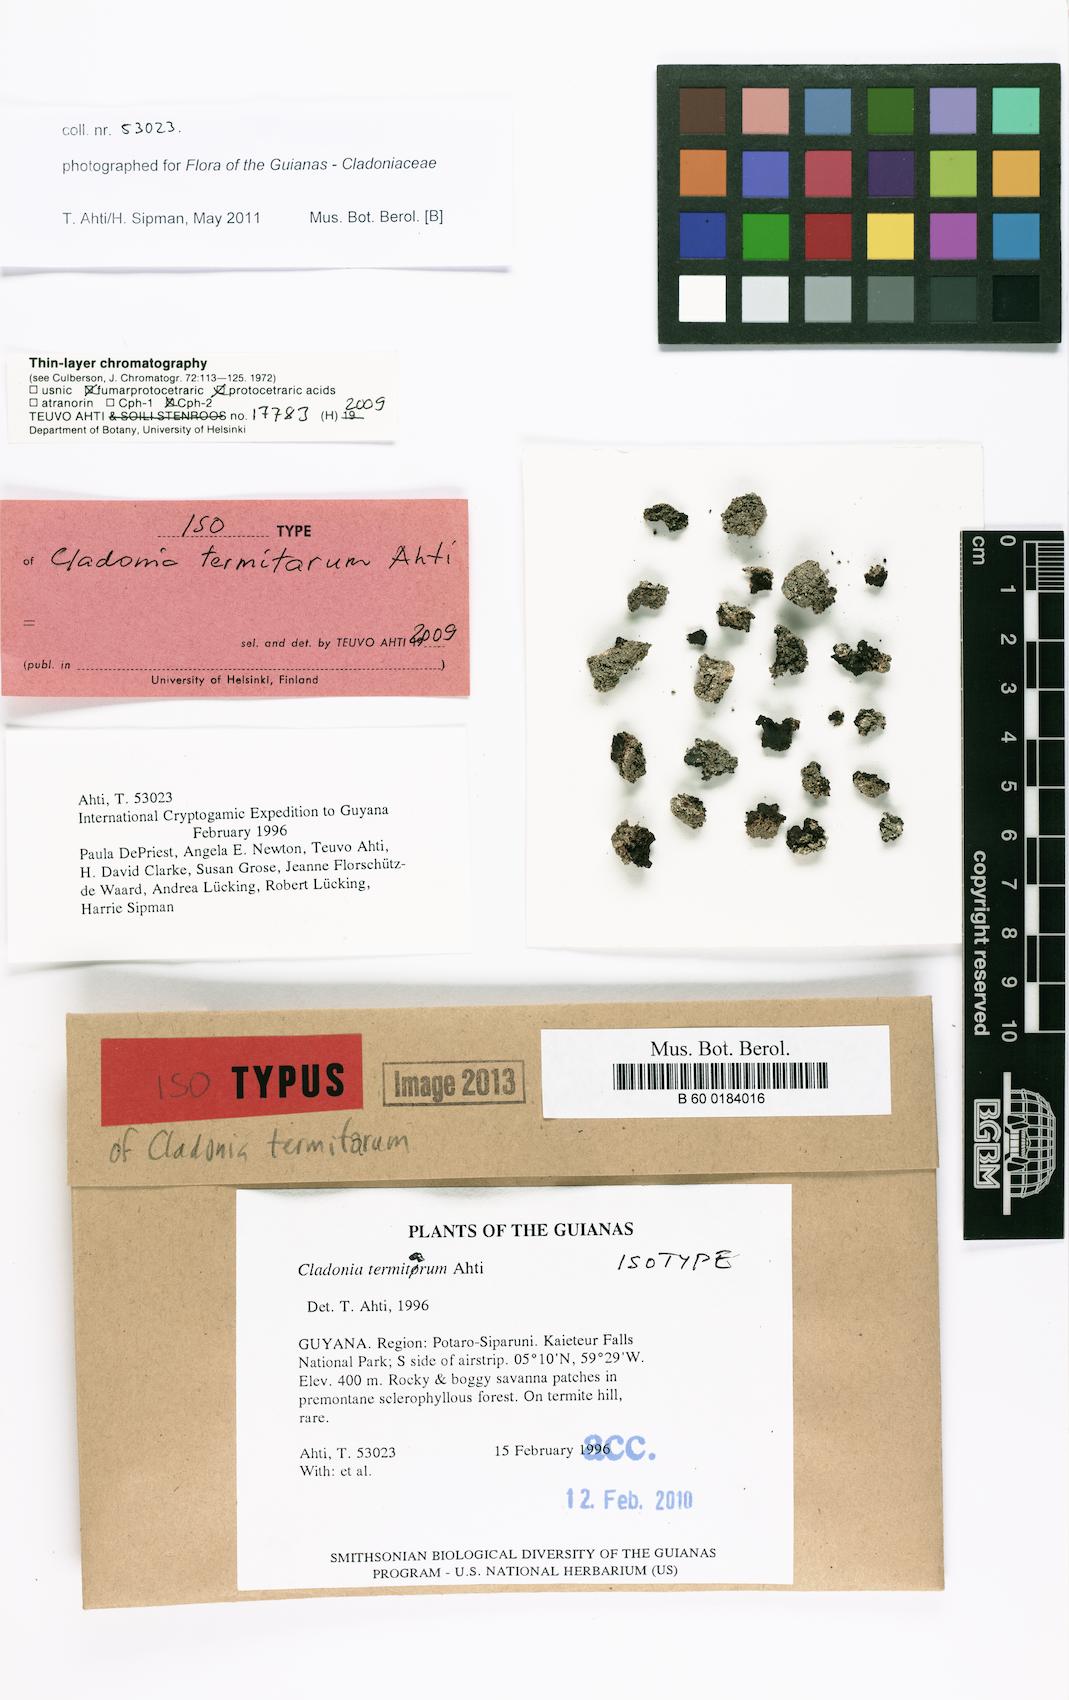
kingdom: Fungi
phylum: Ascomycota
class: Lecanoromycetes
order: Lecanorales
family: Cladoniaceae
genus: Cladonia
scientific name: Cladonia termitarum
